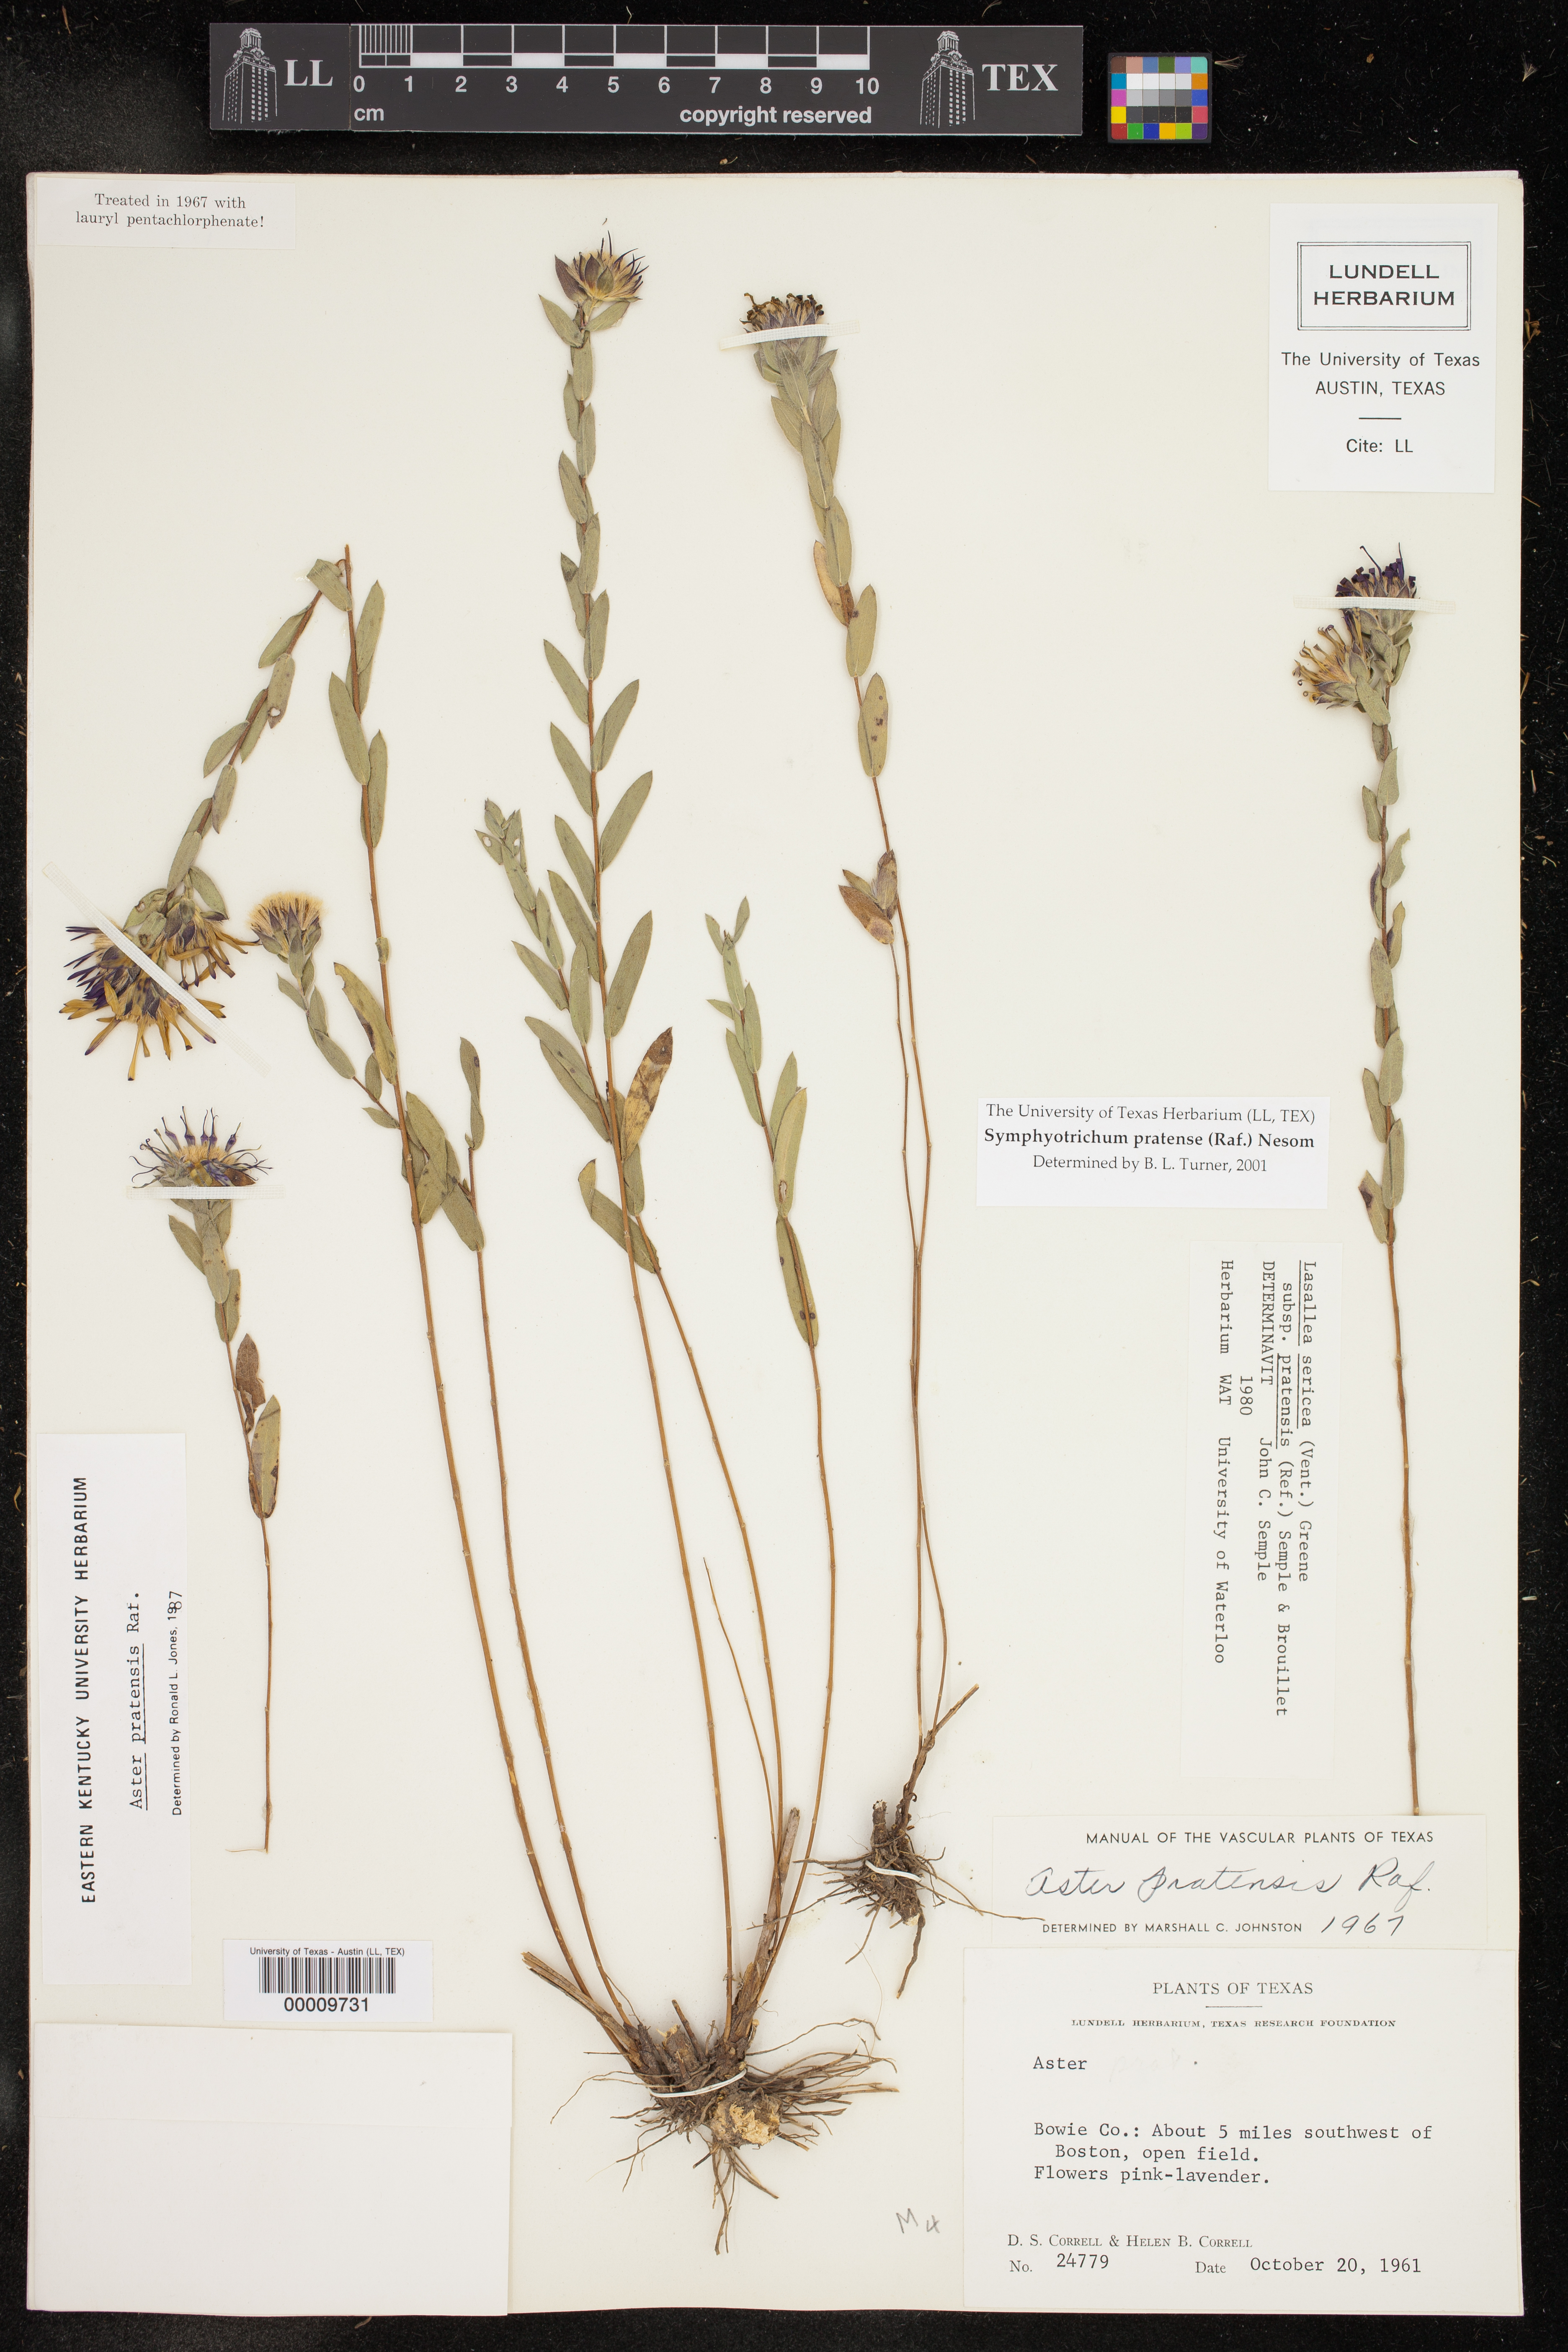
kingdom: Plantae
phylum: Tracheophyta
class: Magnoliopsida
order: Asterales
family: Asteraceae
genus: Symphyotrichum
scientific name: Symphyotrichum pratense
